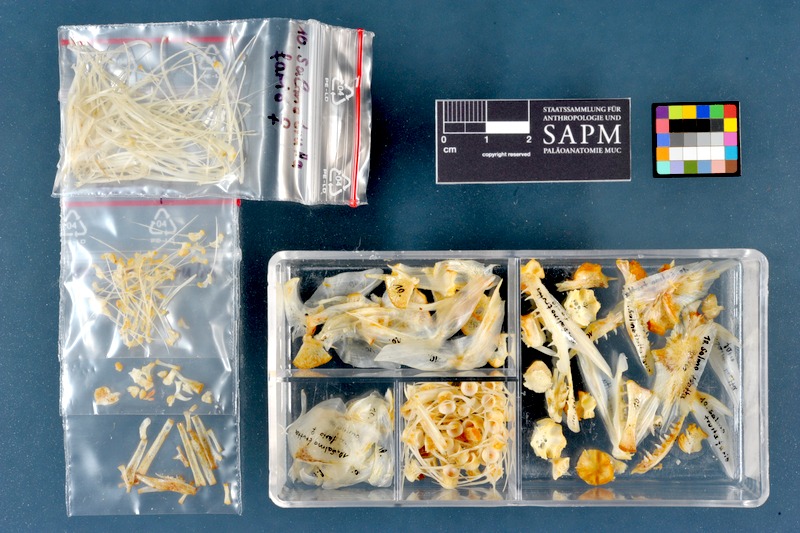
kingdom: Animalia
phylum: Chordata
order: Salmoniformes
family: Salmonidae
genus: Salmo
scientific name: Salmo trutta
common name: Brown trout
